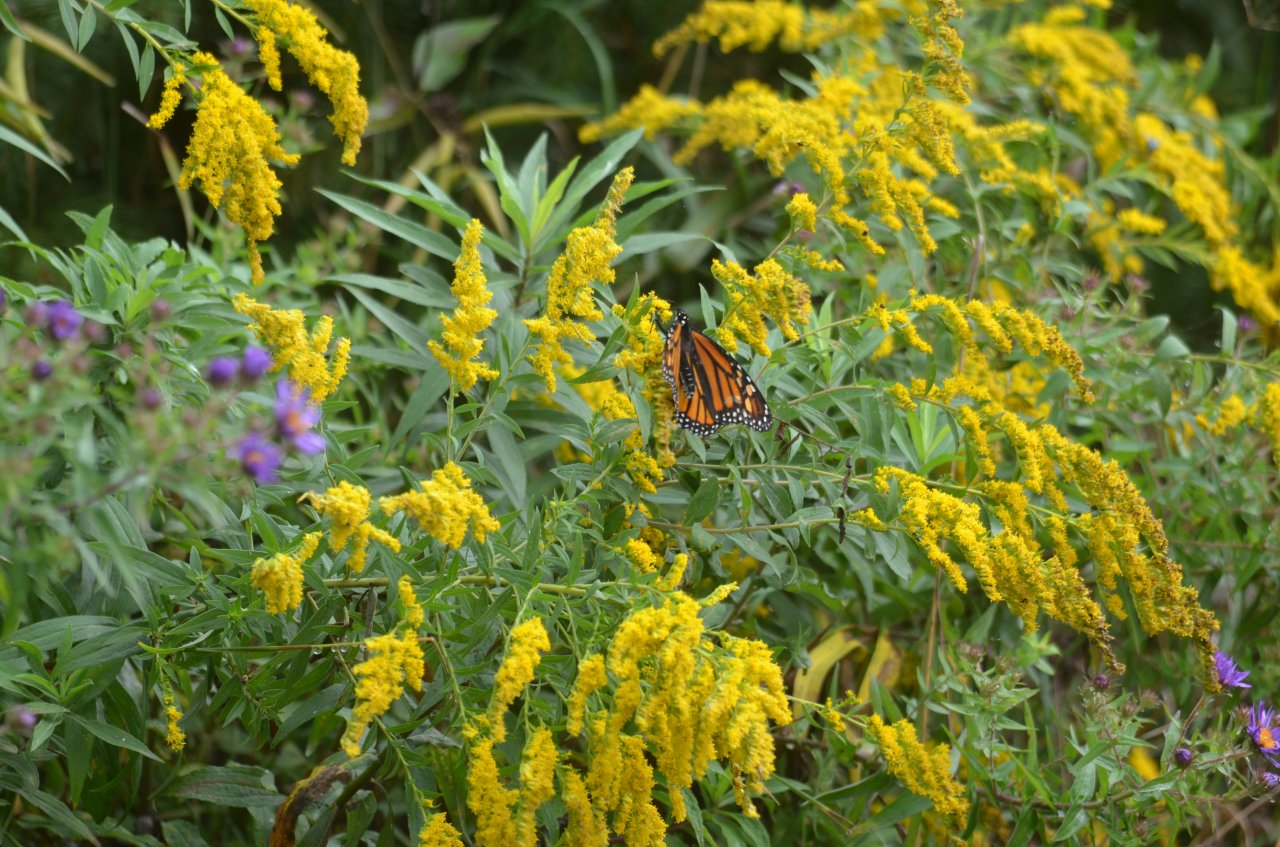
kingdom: Animalia
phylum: Arthropoda
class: Insecta
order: Lepidoptera
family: Nymphalidae
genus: Danaus
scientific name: Danaus plexippus
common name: Monarch
